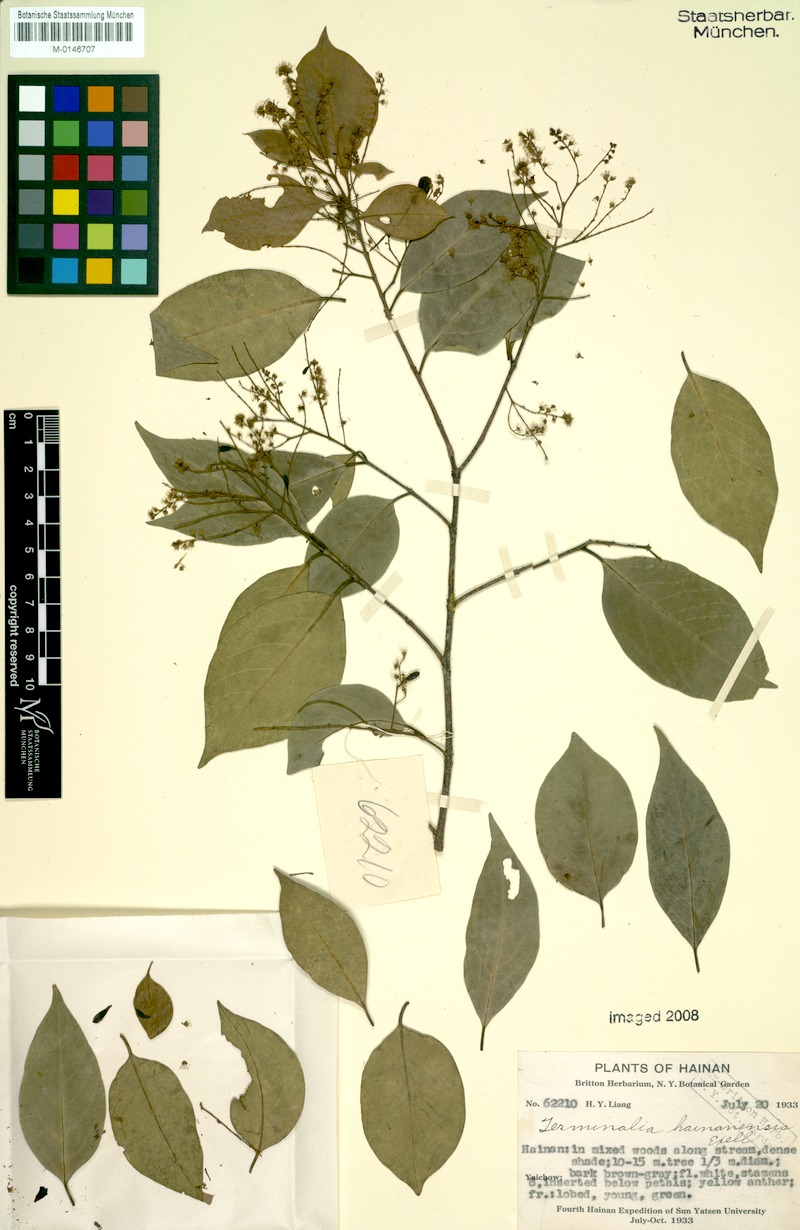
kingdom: Plantae
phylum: Tracheophyta
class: Magnoliopsida
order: Myrtales
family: Combretaceae
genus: Terminalia
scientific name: Terminalia triptera
